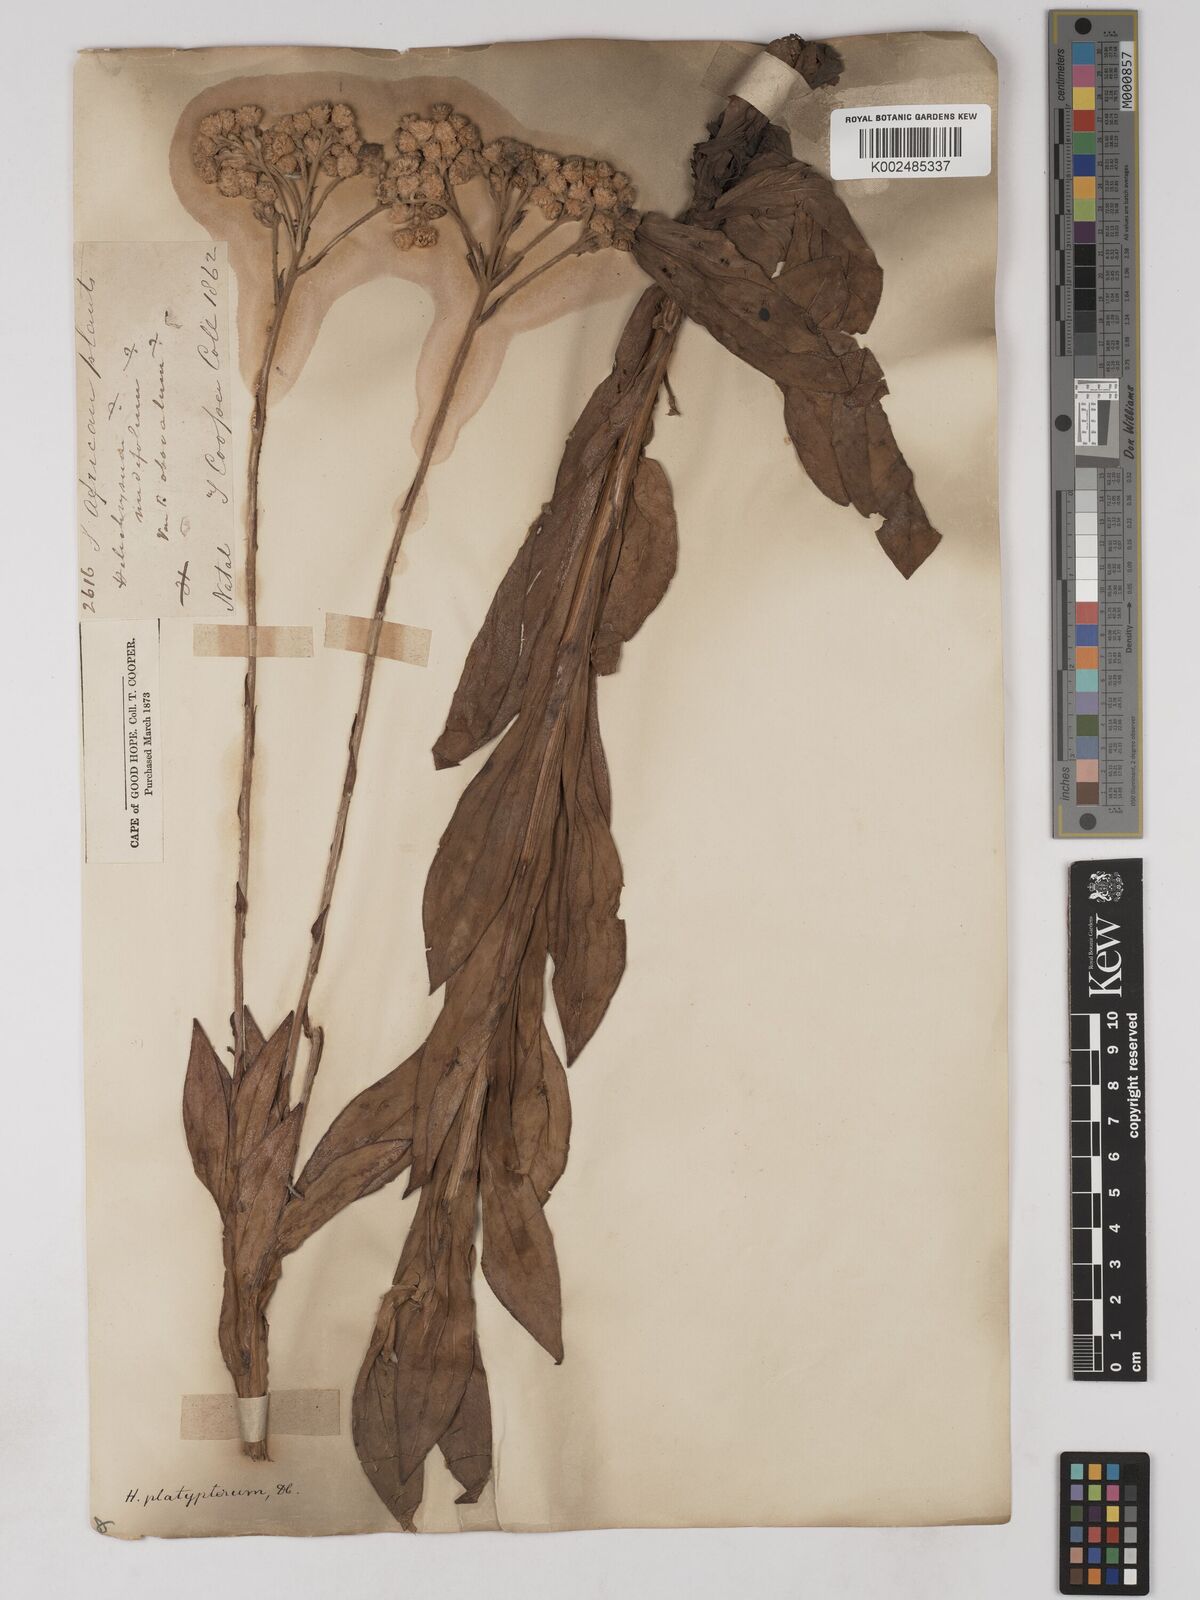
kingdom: Plantae
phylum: Tracheophyta
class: Magnoliopsida
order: Asterales
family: Asteraceae
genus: Helichrysum
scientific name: Helichrysum platypterum
